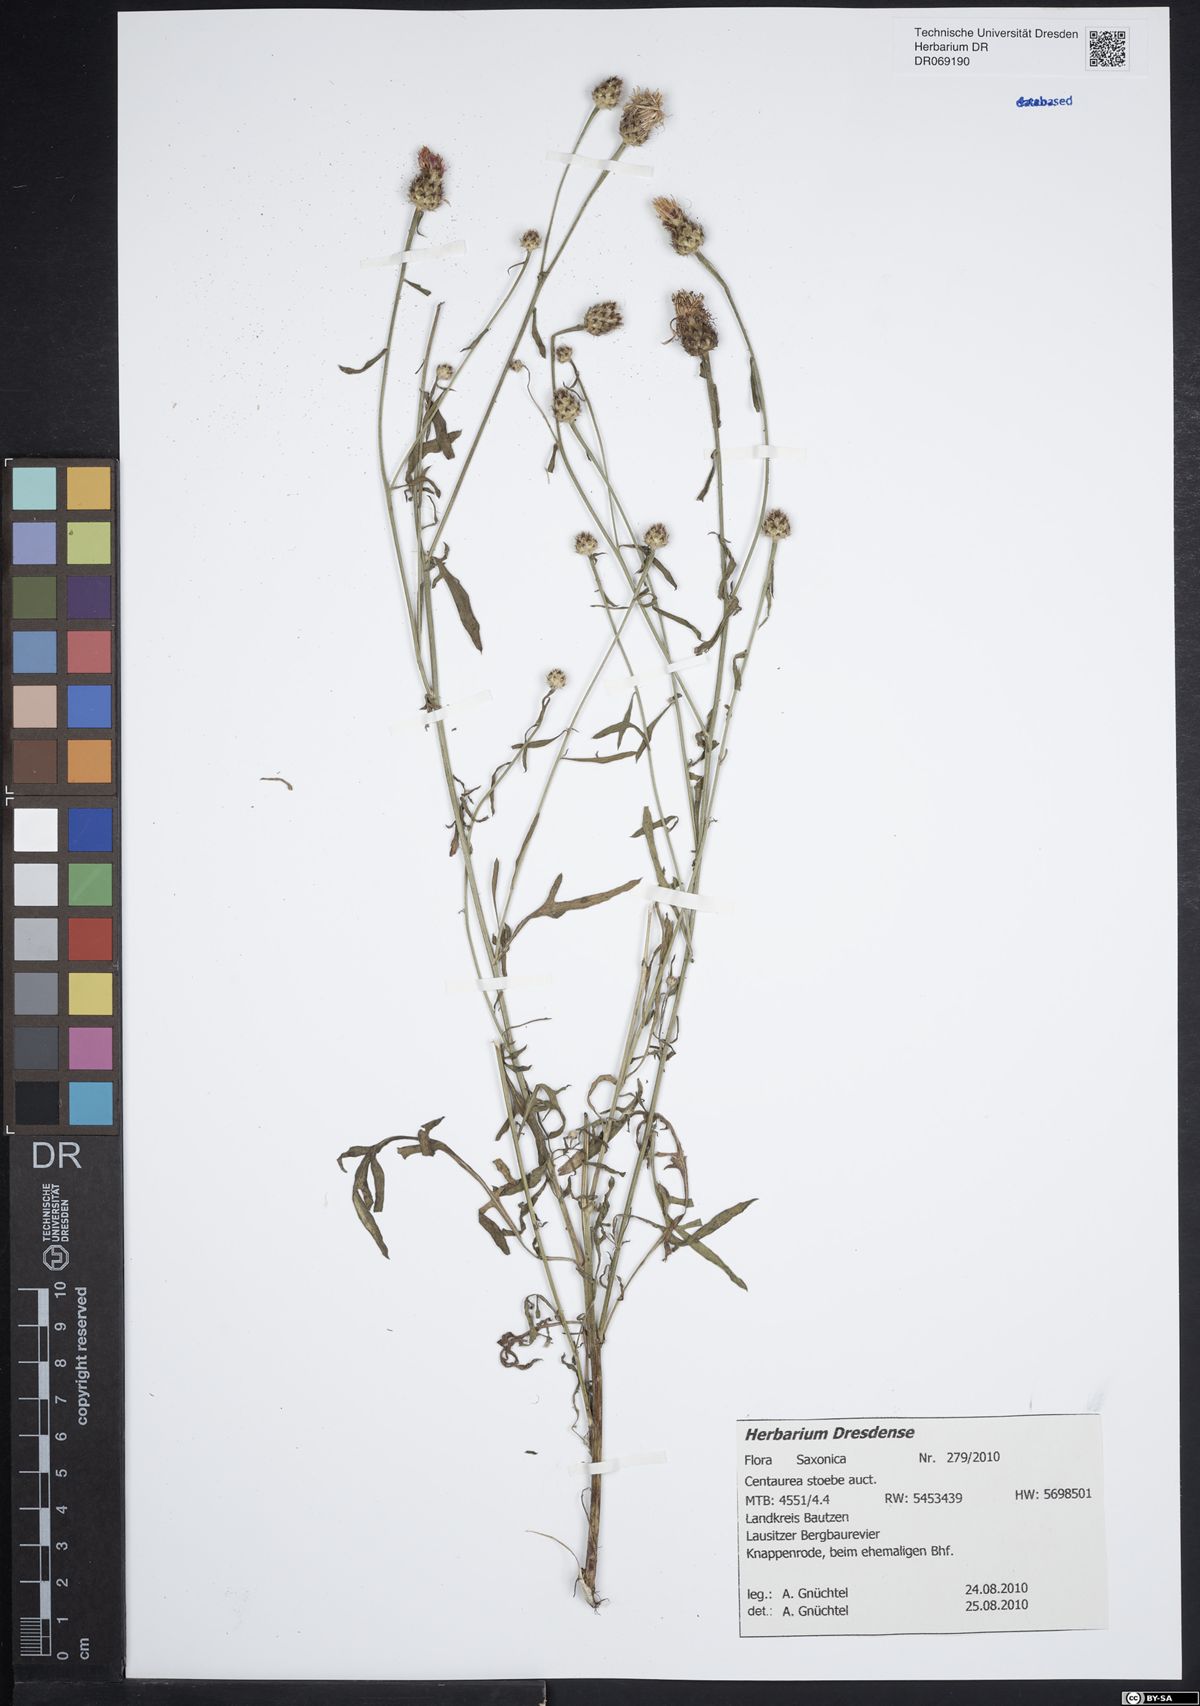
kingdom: Plantae
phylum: Tracheophyta
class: Magnoliopsida
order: Asterales
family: Asteraceae
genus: Centaurea
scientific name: Centaurea stoebe
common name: Spotted knapweed
